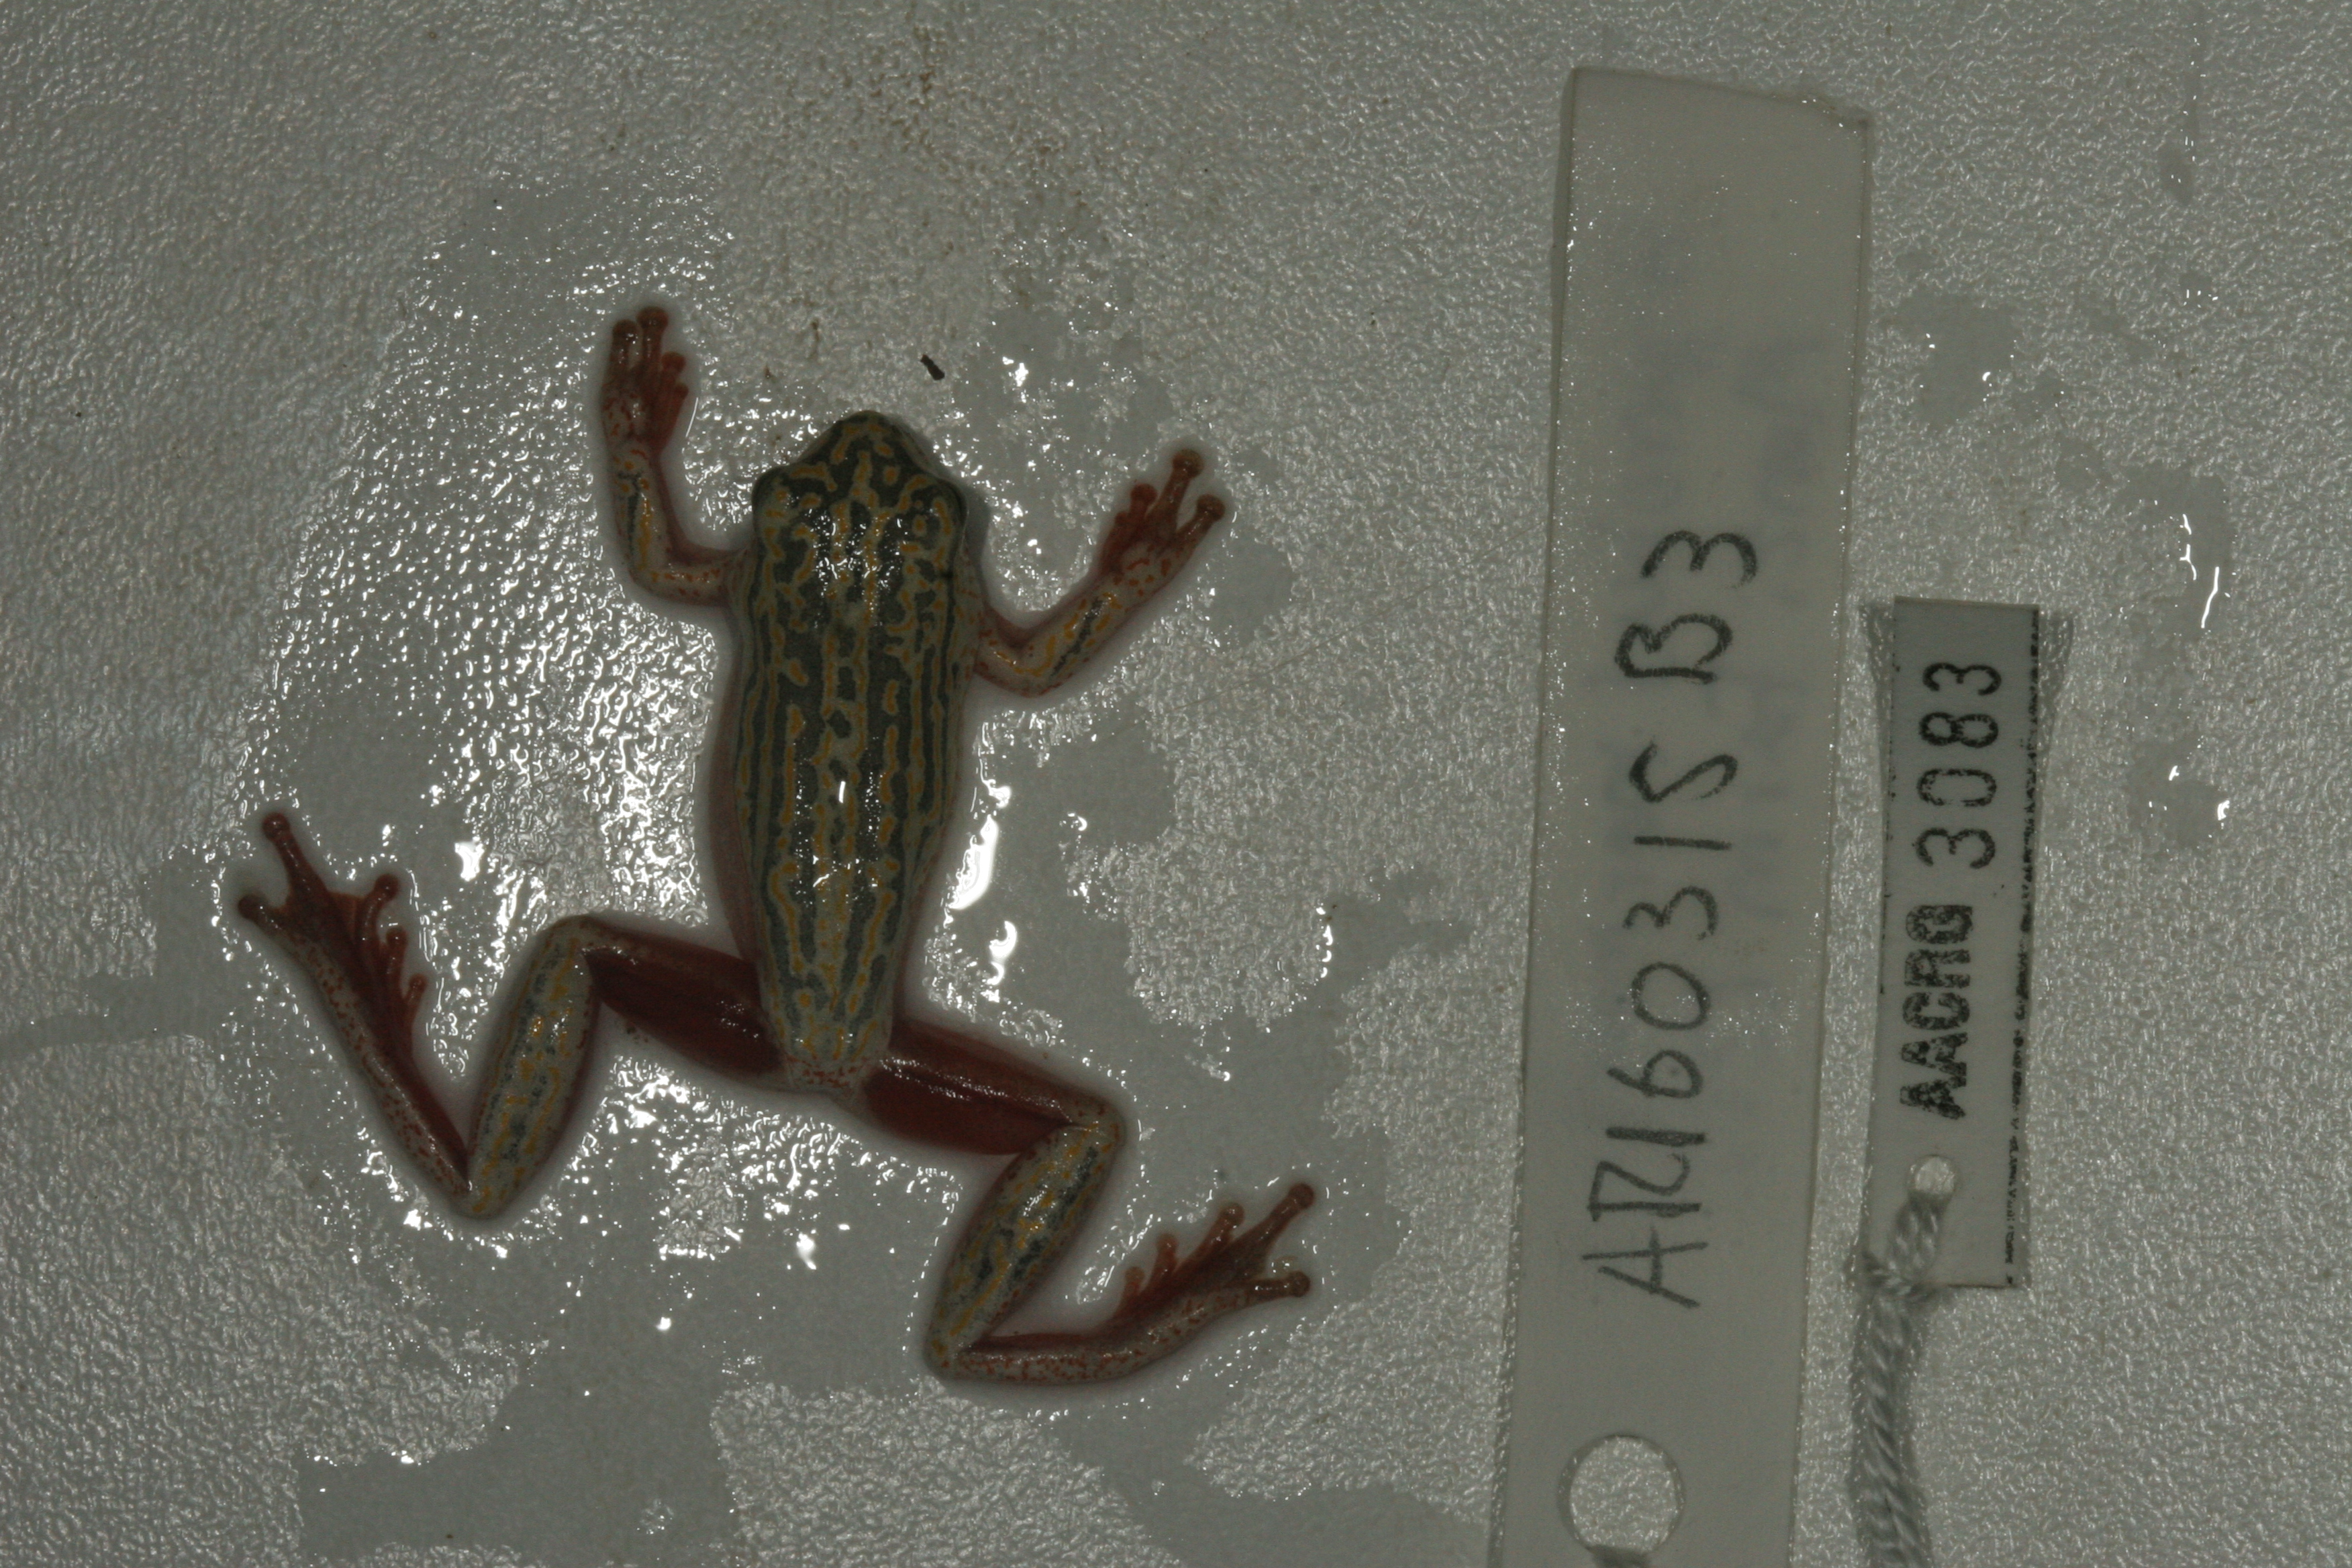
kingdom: Animalia
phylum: Chordata
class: Amphibia
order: Anura
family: Hyperoliidae
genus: Hyperolius
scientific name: Hyperolius marmoratus
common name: Painted reed frog
